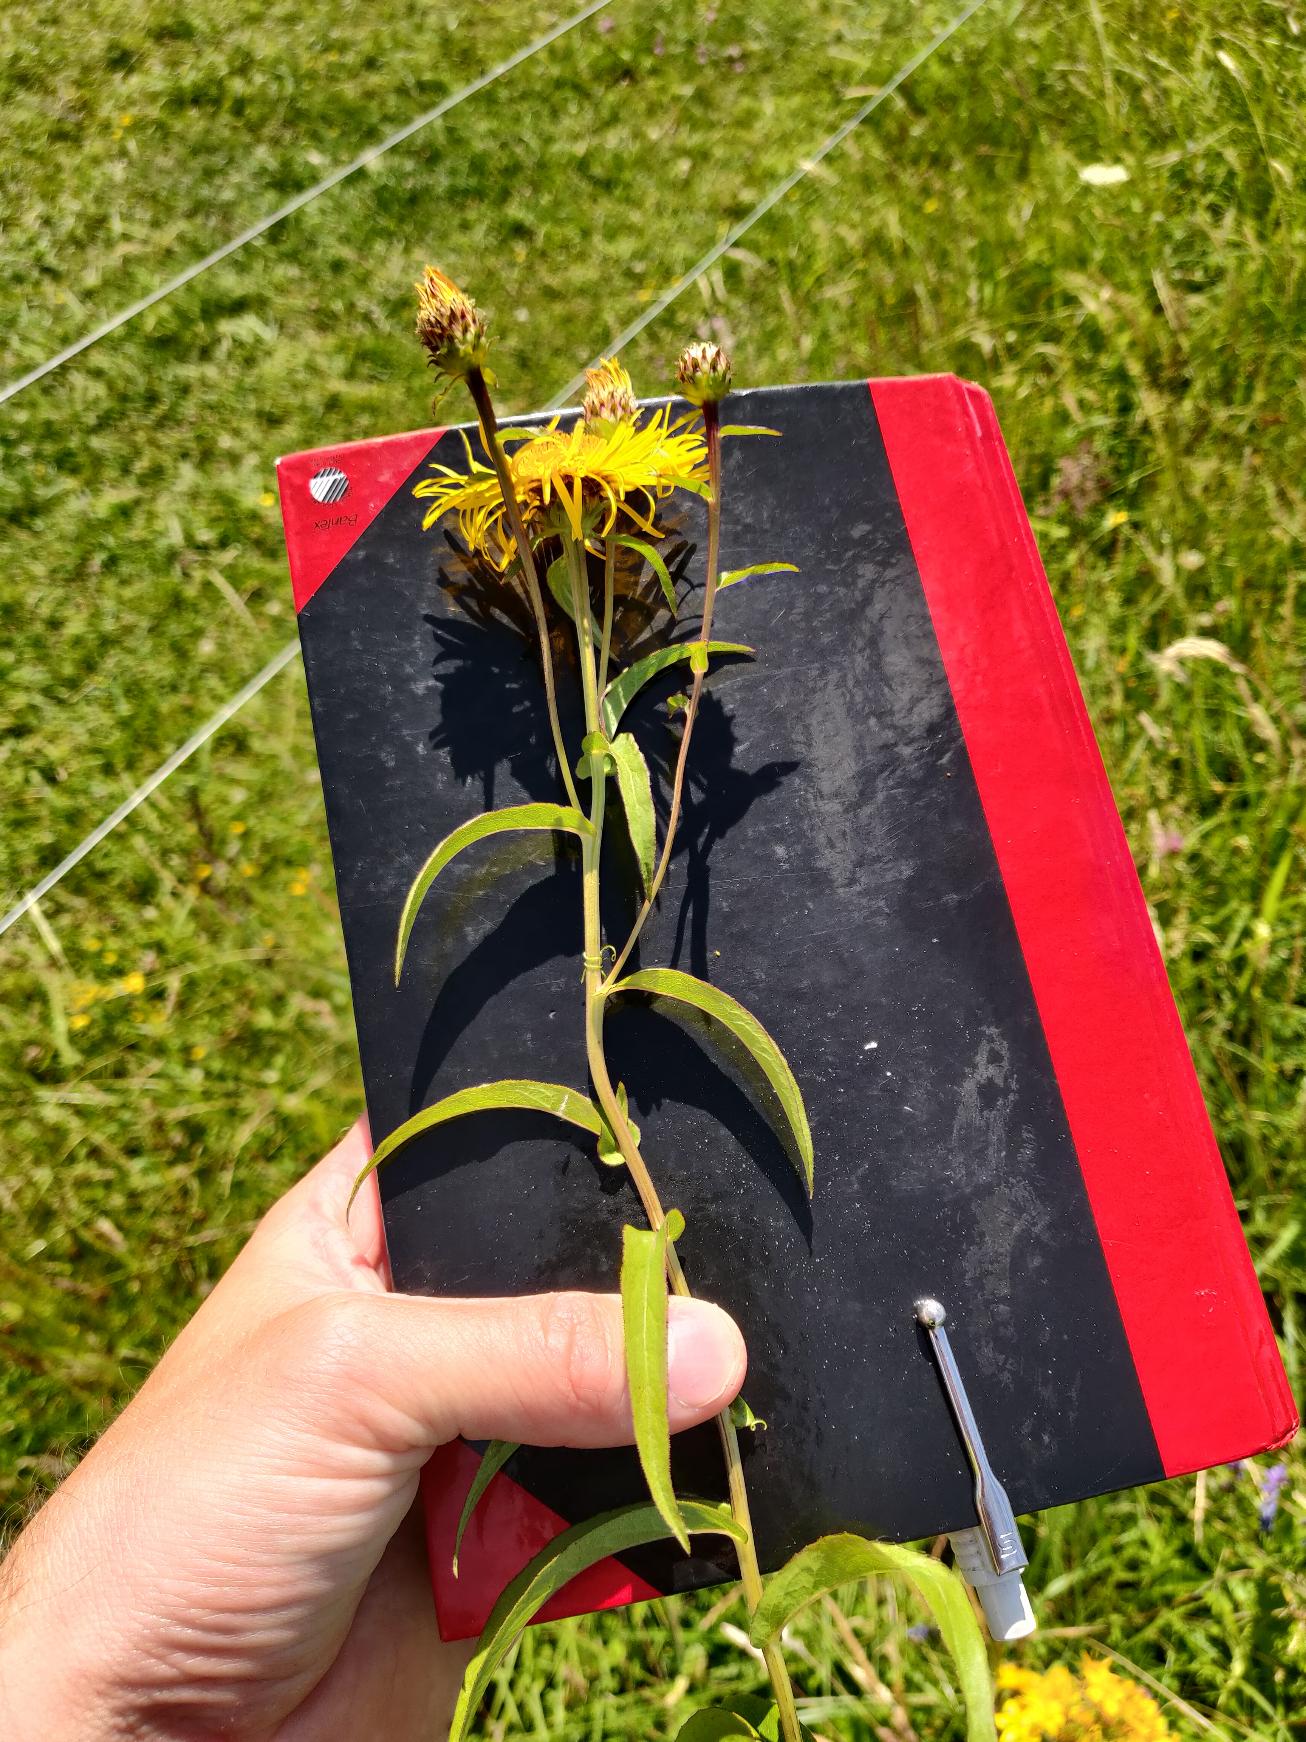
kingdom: Plantae
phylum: Tracheophyta
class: Magnoliopsida
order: Asterales
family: Asteraceae
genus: Pentanema
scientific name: Pentanema salicinum
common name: Pile-alant
